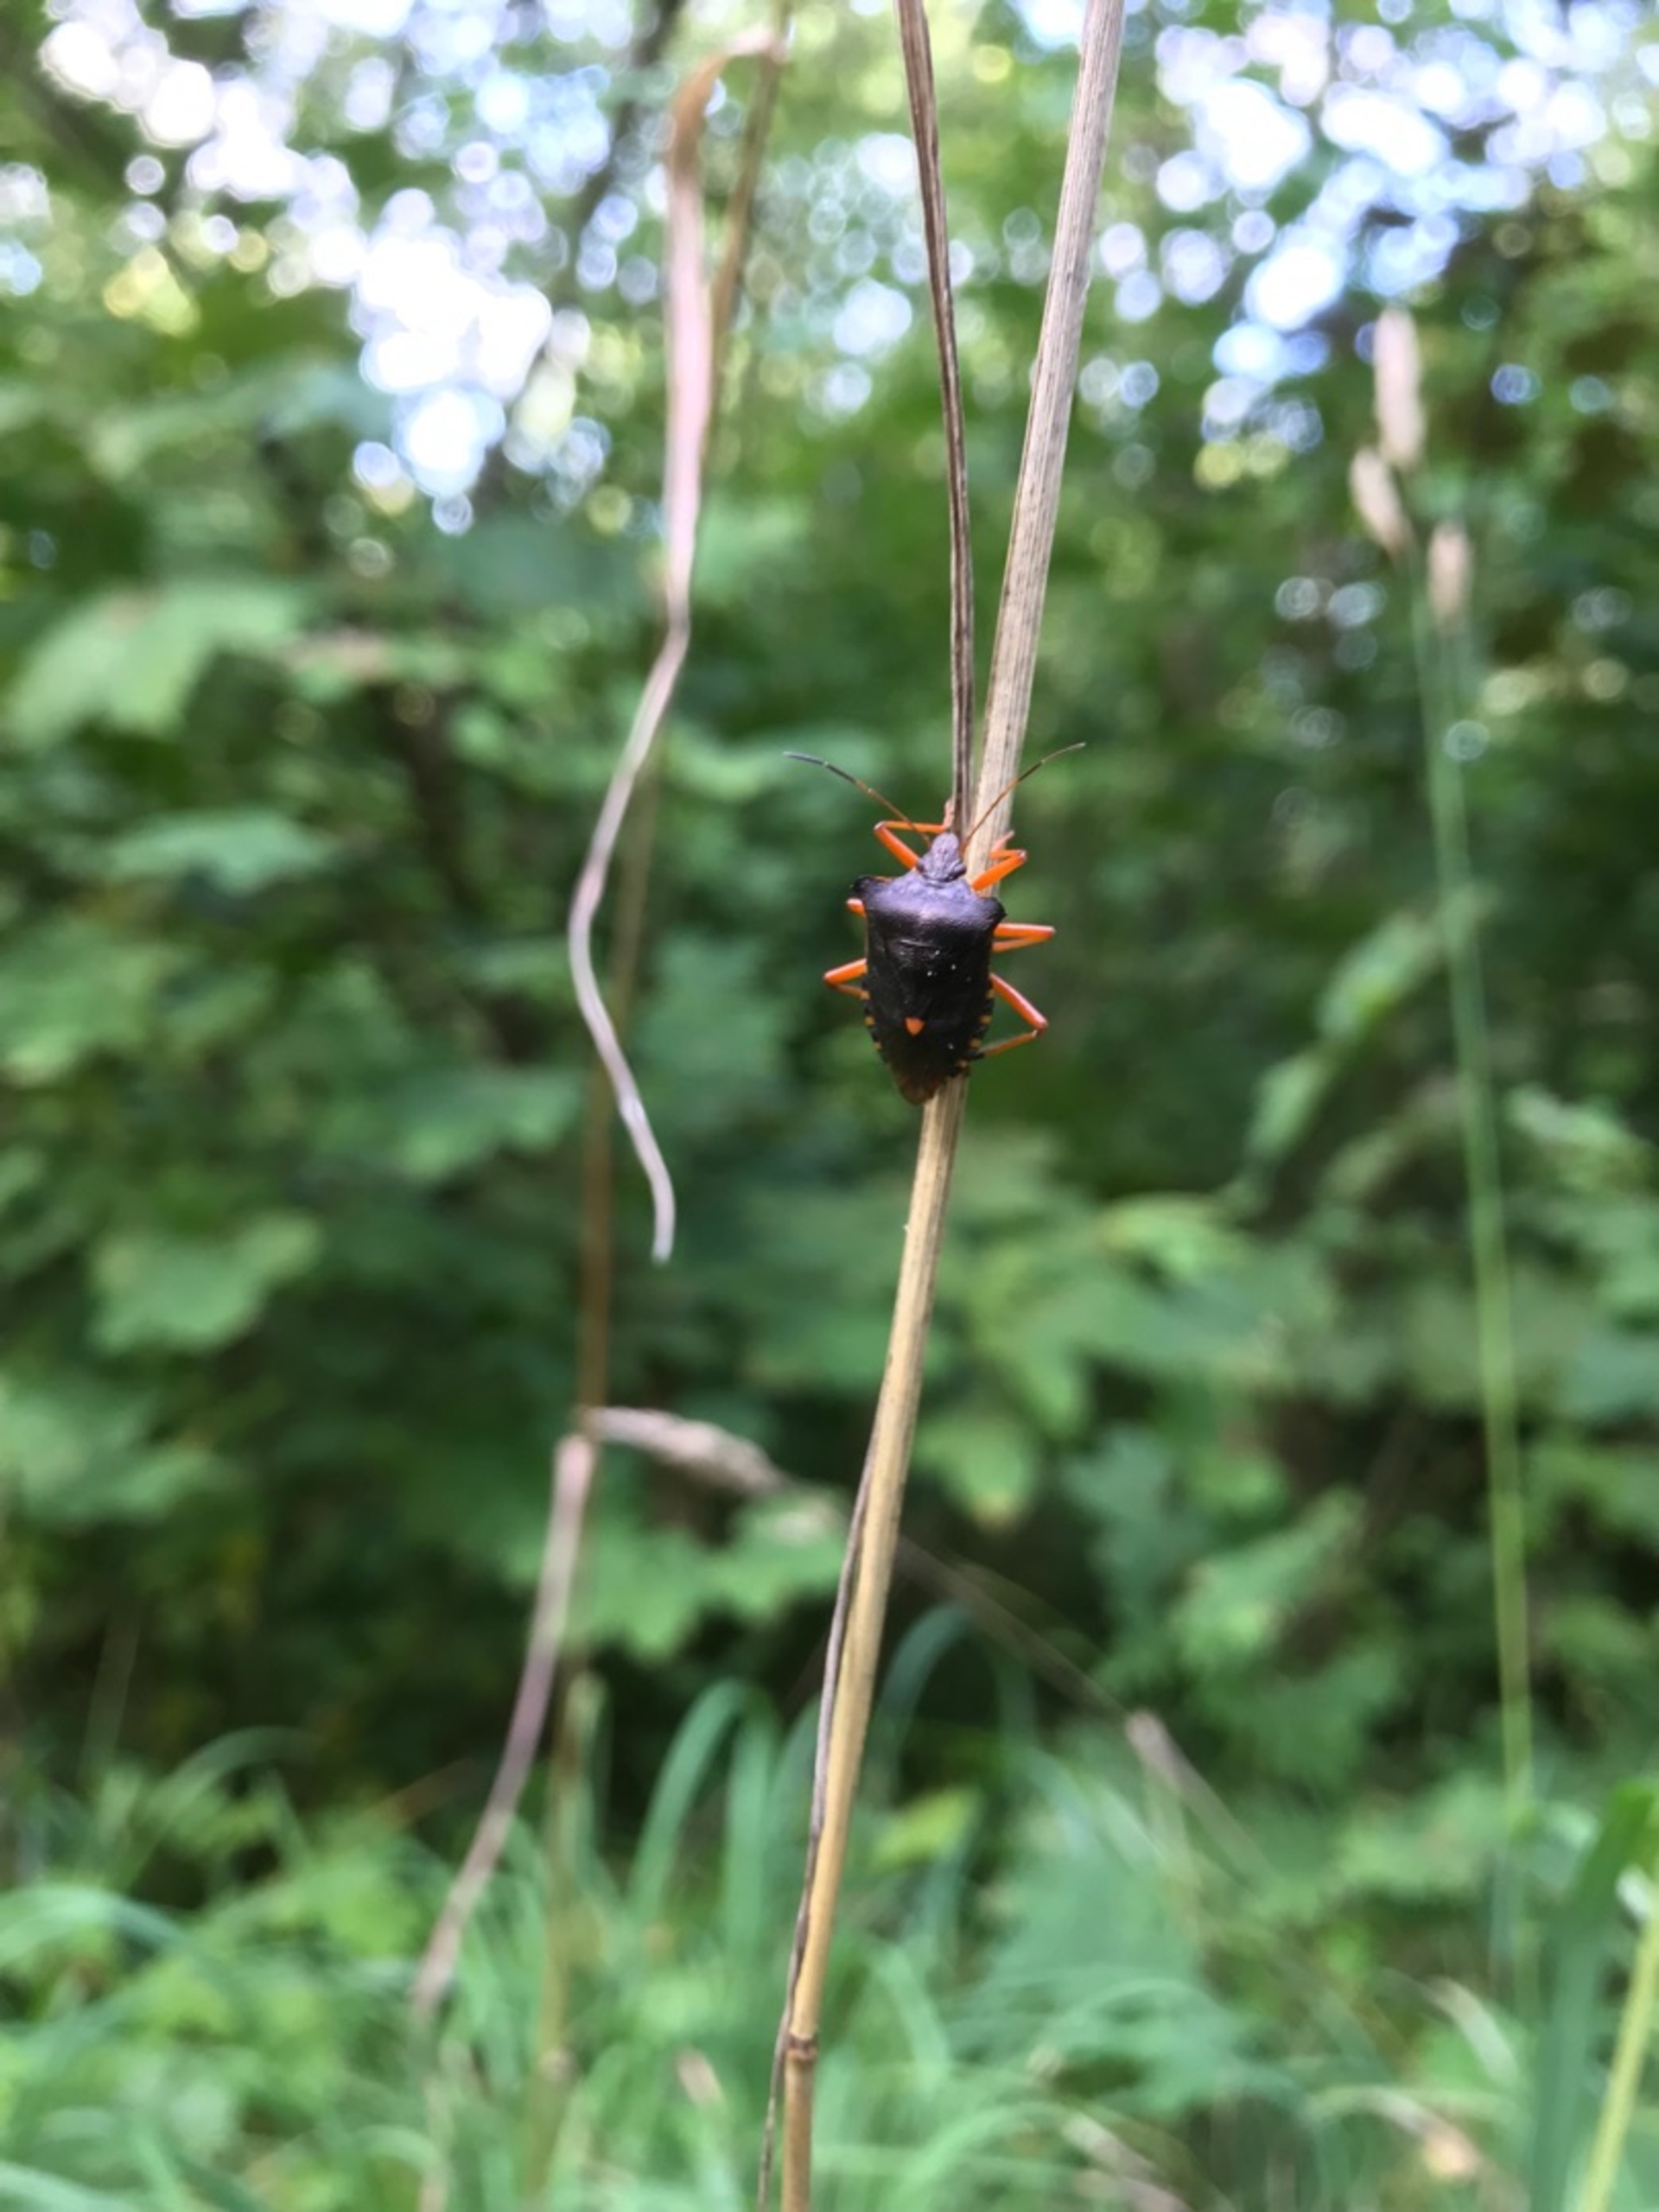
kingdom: Animalia
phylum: Arthropoda
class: Insecta
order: Hemiptera
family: Pentatomidae
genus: Pentatoma
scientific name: Pentatoma rufipes
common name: Rødbenet bredtæge
